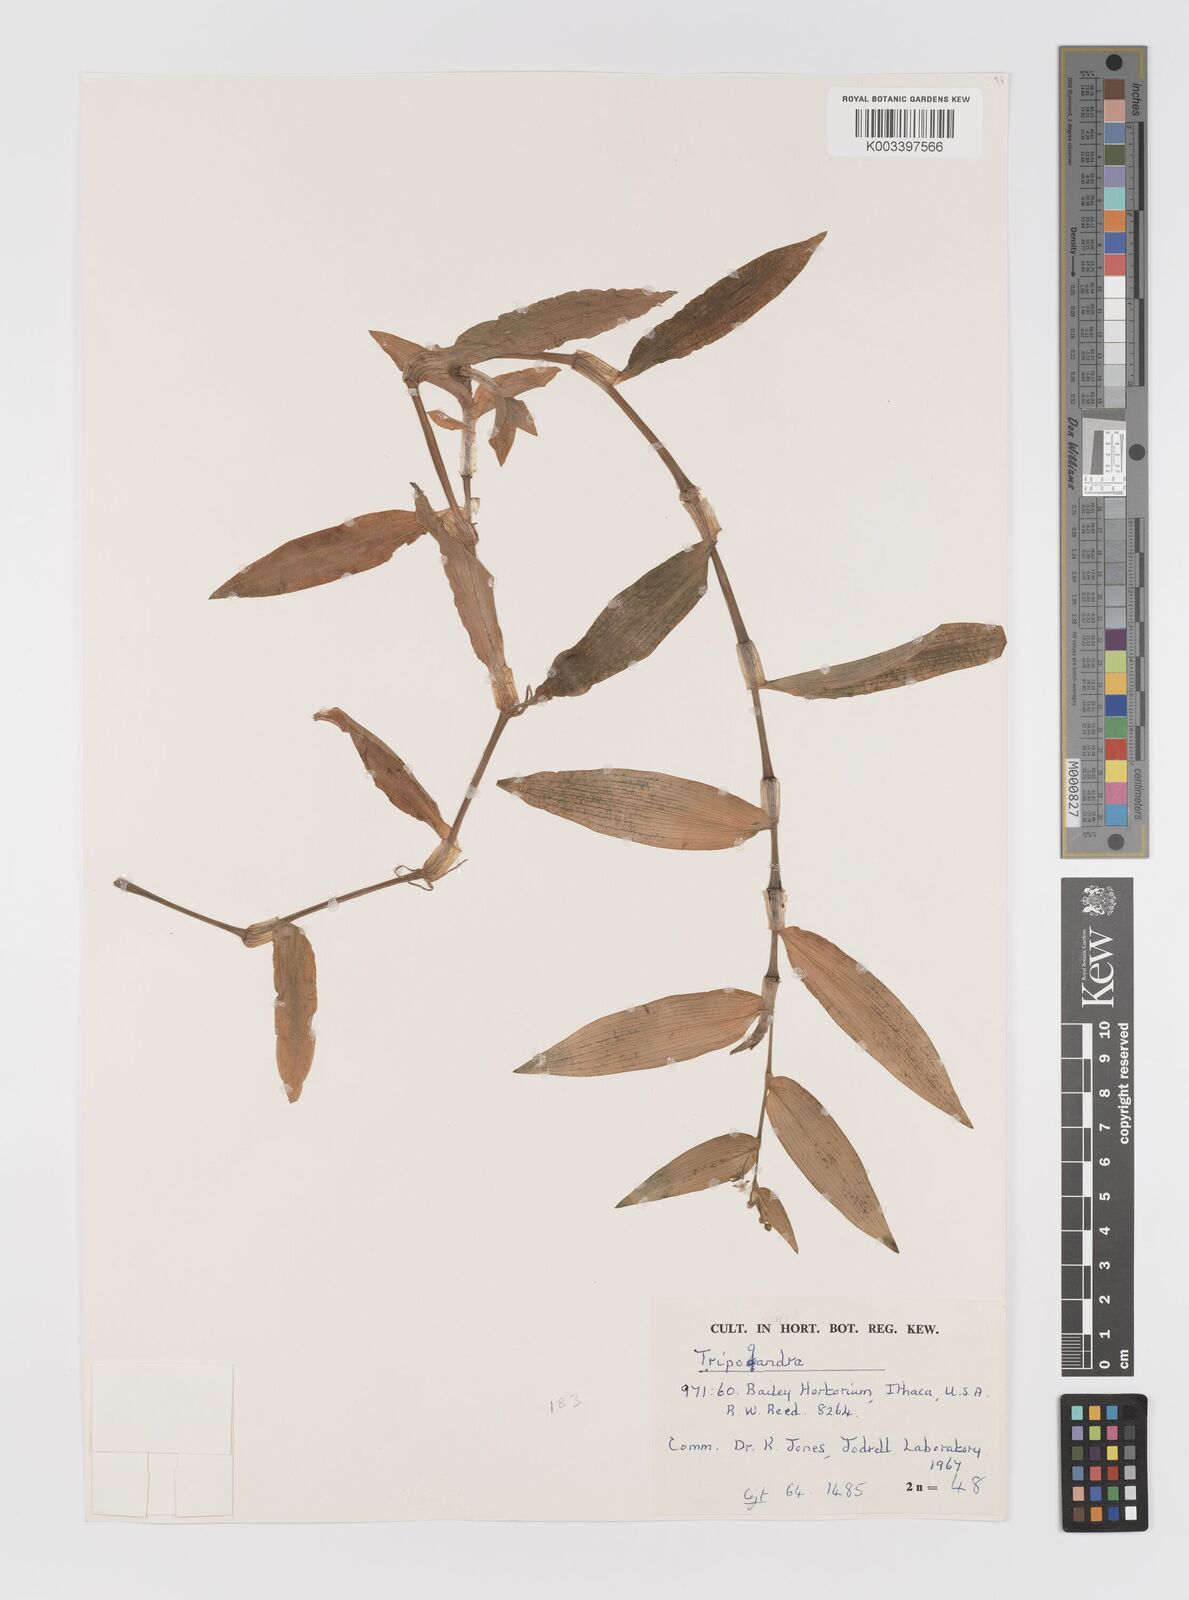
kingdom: Plantae
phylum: Tracheophyta
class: Liliopsida
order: Commelinales
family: Commelinaceae
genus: Callisia
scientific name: Callisia serrulata
